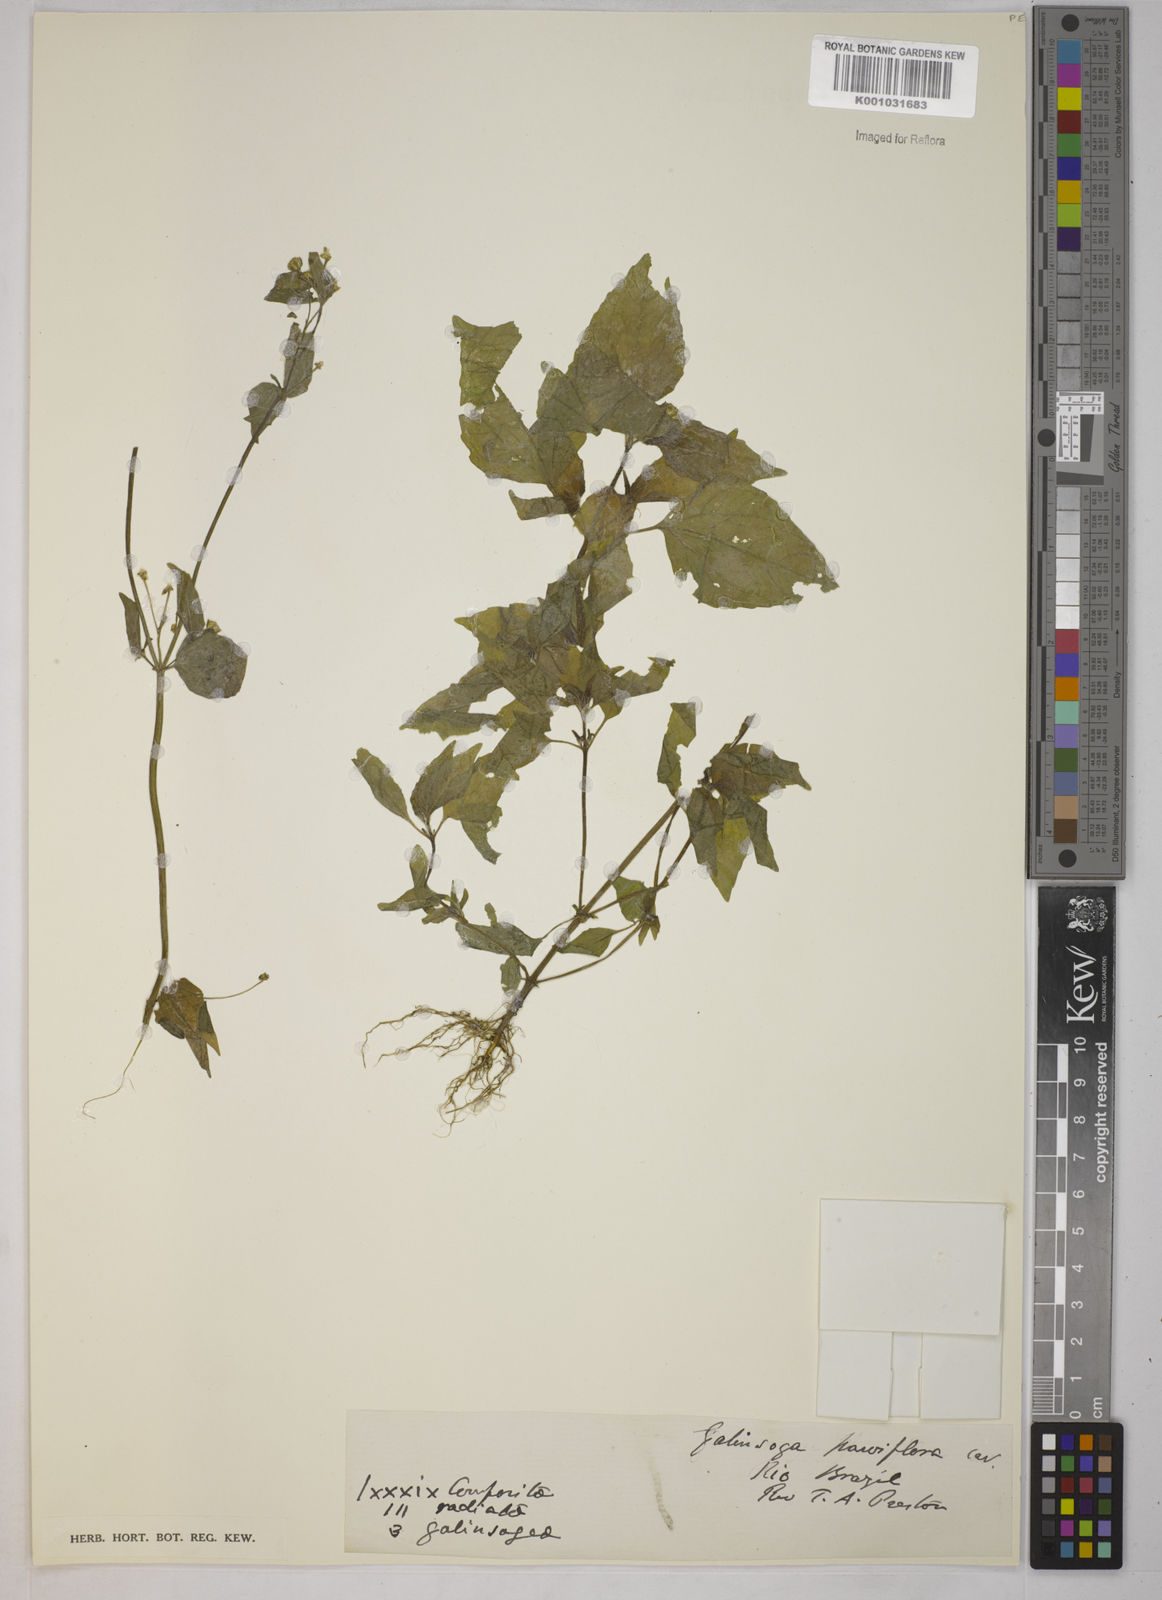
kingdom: Plantae
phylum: Tracheophyta
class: Magnoliopsida
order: Asterales
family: Asteraceae
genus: Galinsoga
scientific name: Galinsoga parviflora
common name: Gallant soldier
